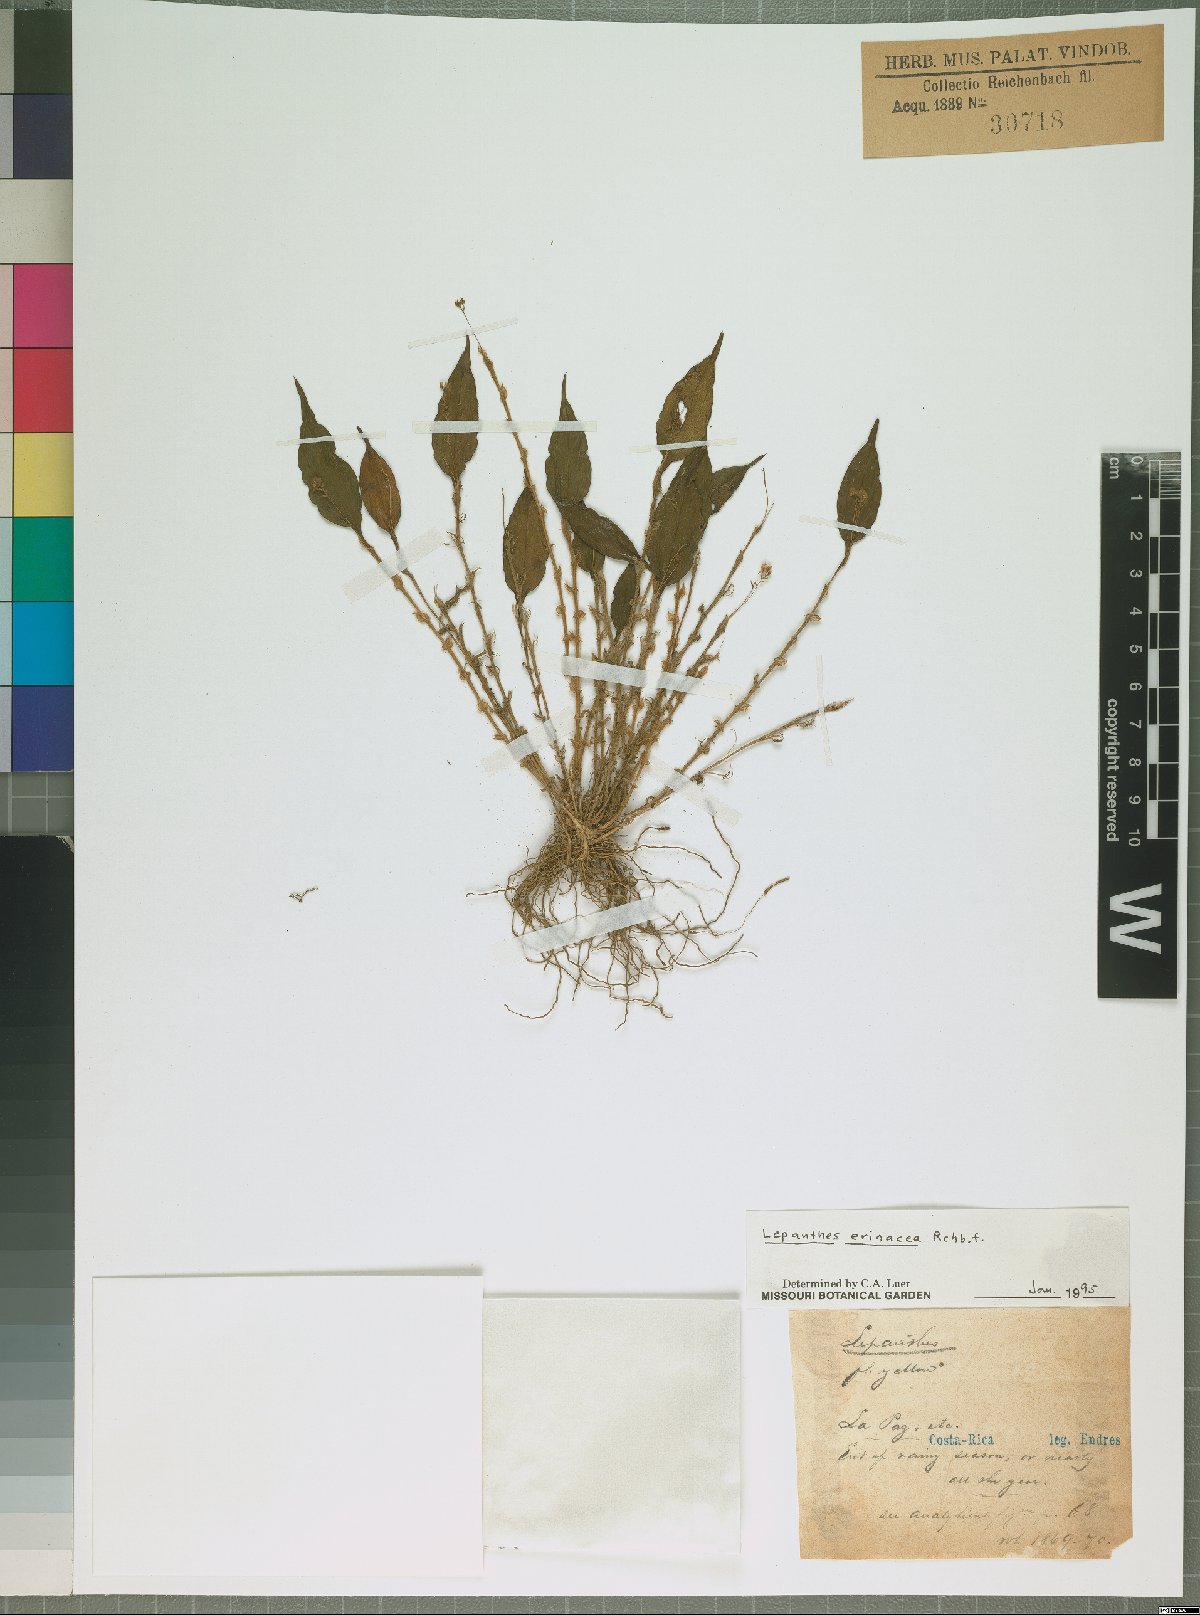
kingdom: Plantae
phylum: Tracheophyta
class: Liliopsida
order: Asparagales
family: Orchidaceae
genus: Lepanthes
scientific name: Lepanthes erinacea
